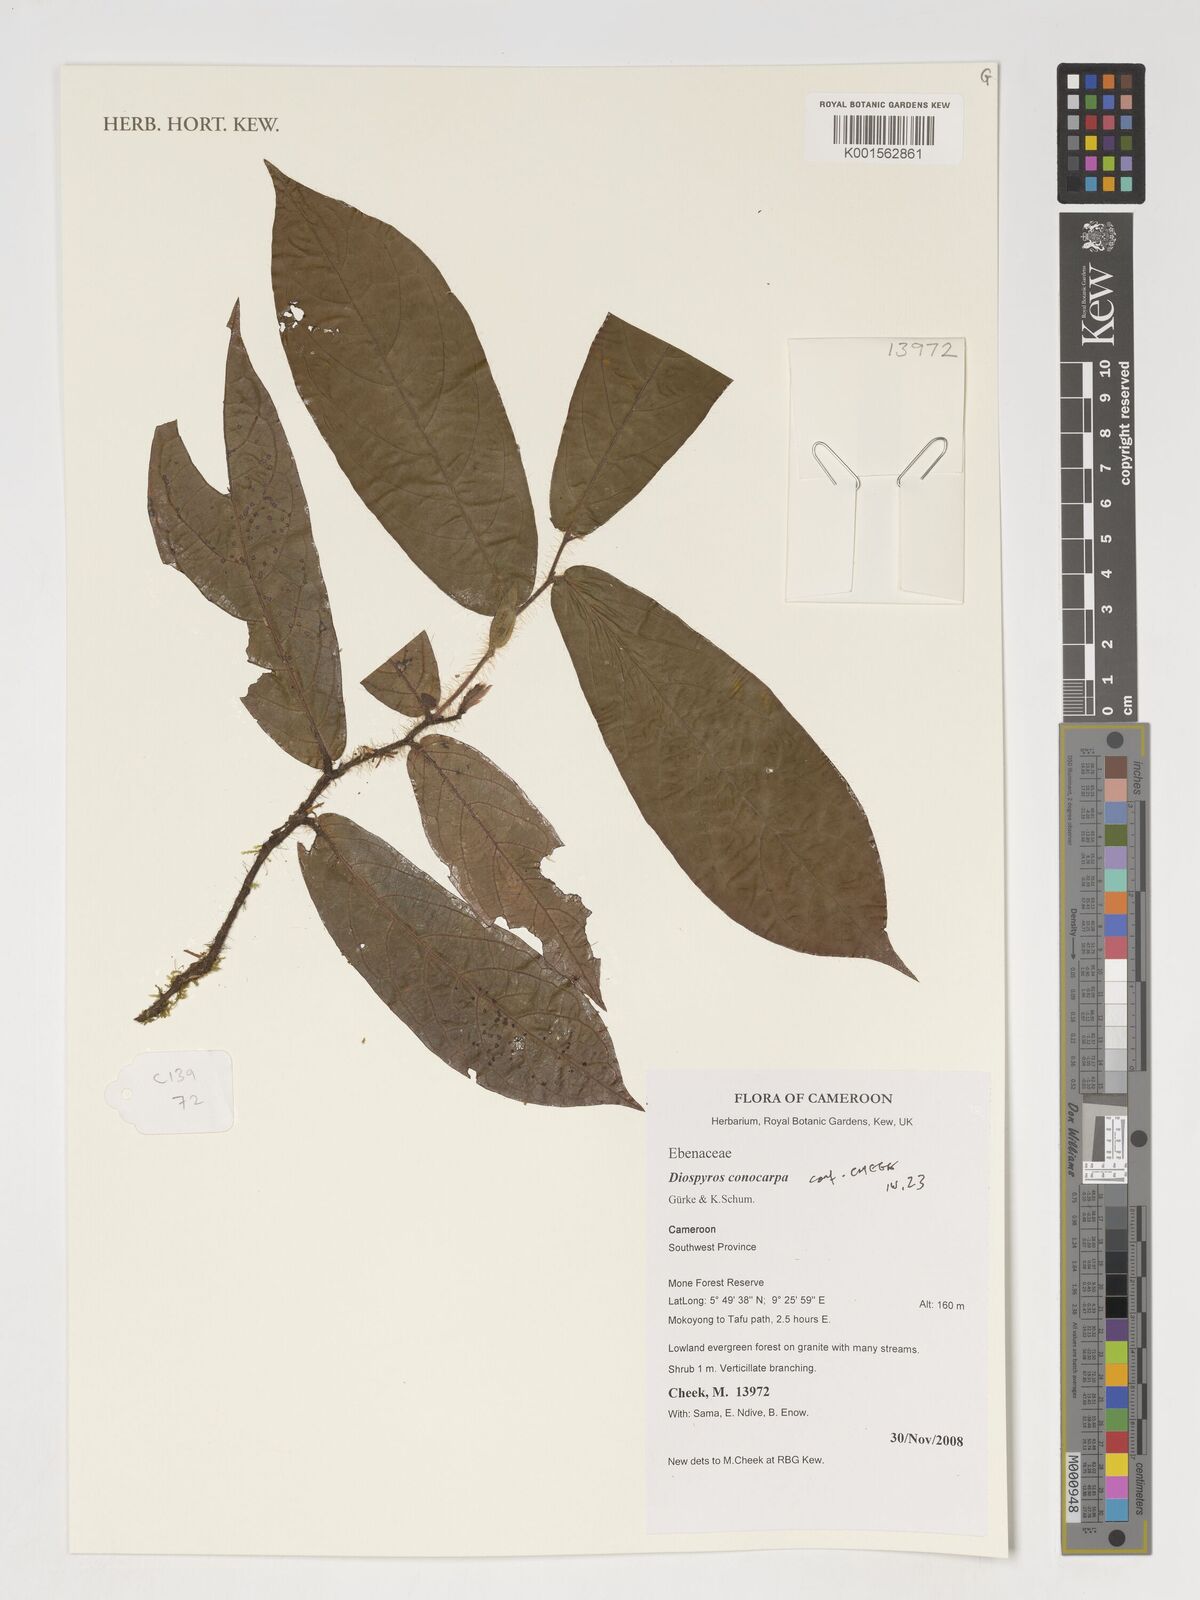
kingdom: Plantae
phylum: Tracheophyta
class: Magnoliopsida
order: Ericales
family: Ebenaceae
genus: Diospyros
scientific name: Diospyros conocarpa
